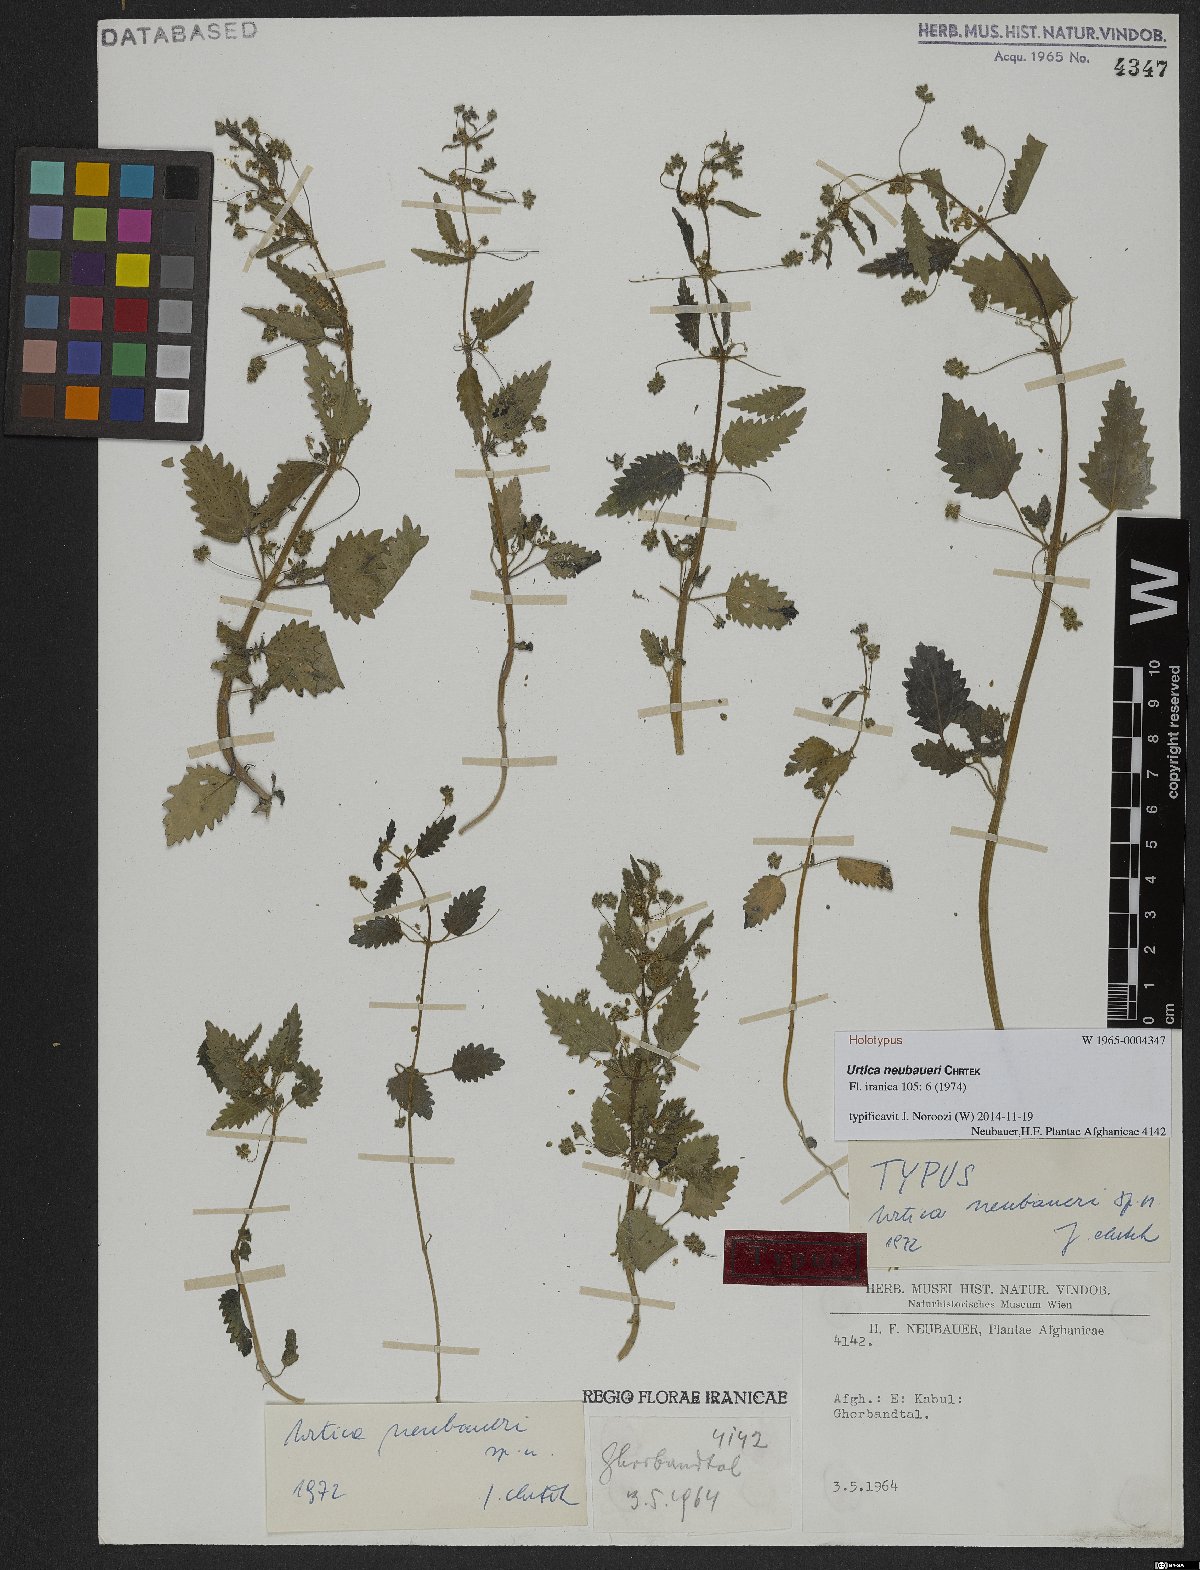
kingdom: Plantae
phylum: Tracheophyta
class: Magnoliopsida
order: Rosales
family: Urticaceae
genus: Urtica
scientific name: Urtica neubaueri
